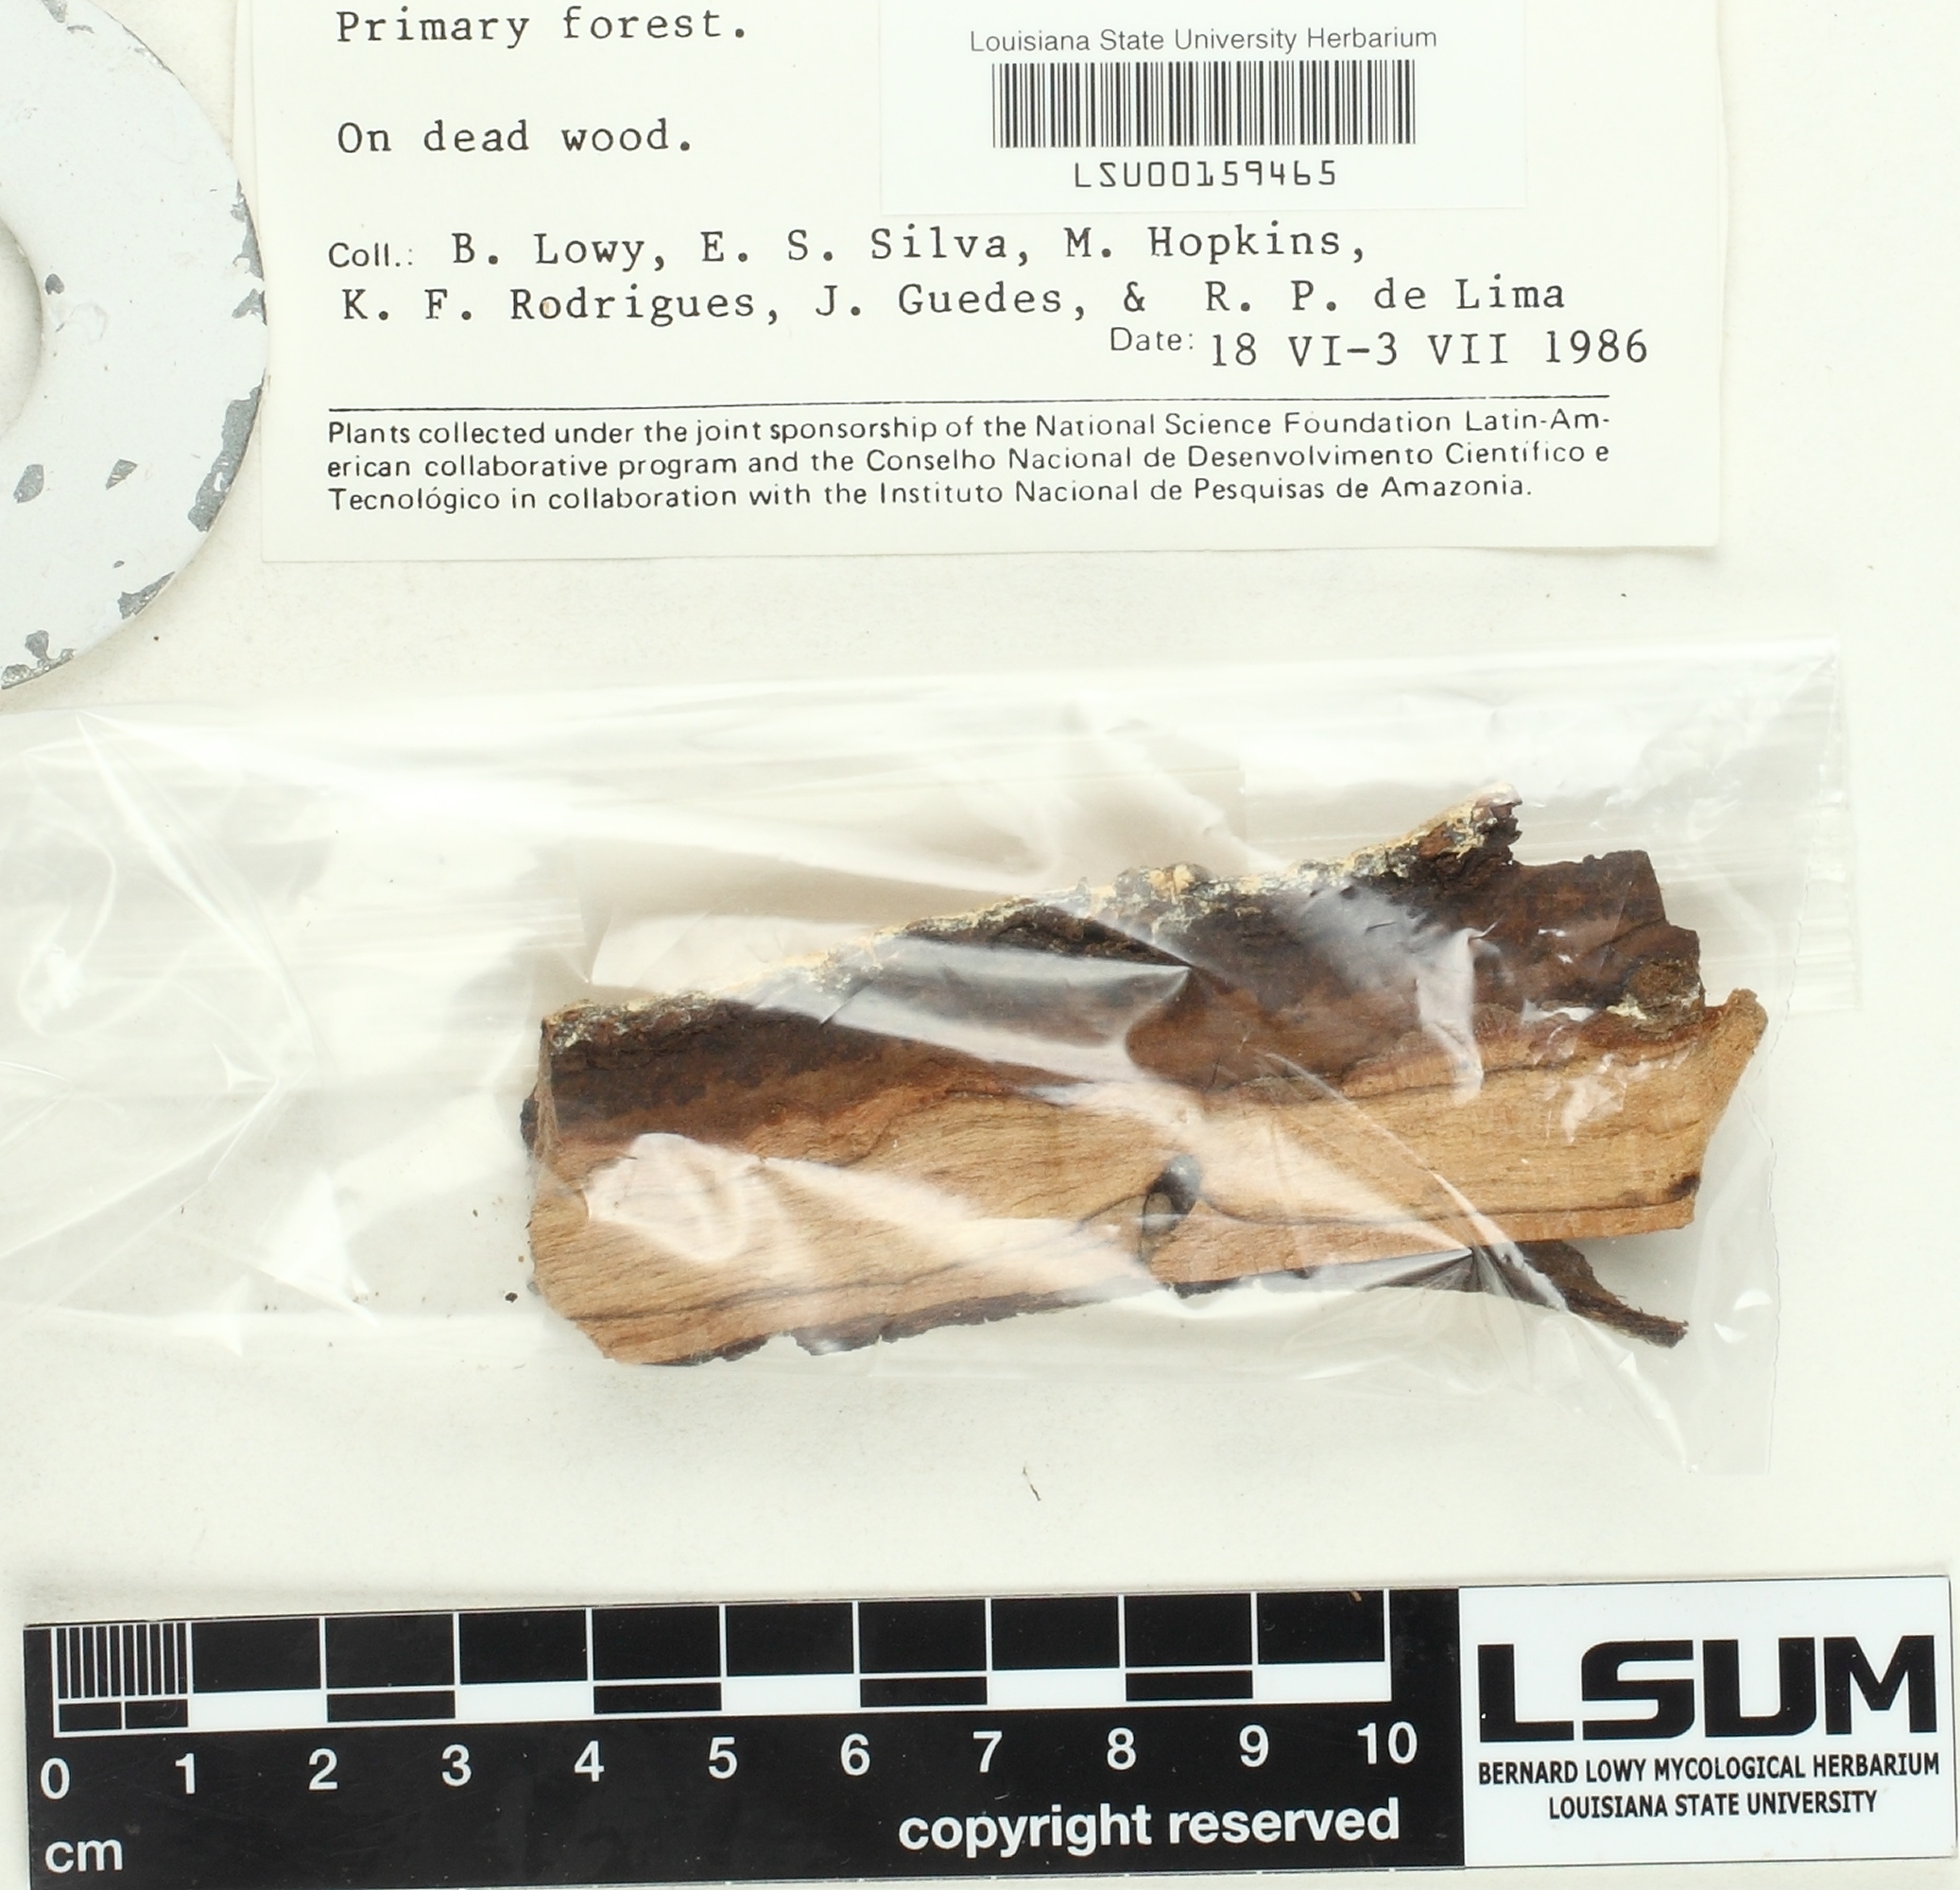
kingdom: Fungi
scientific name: Fungi
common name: Fungi
